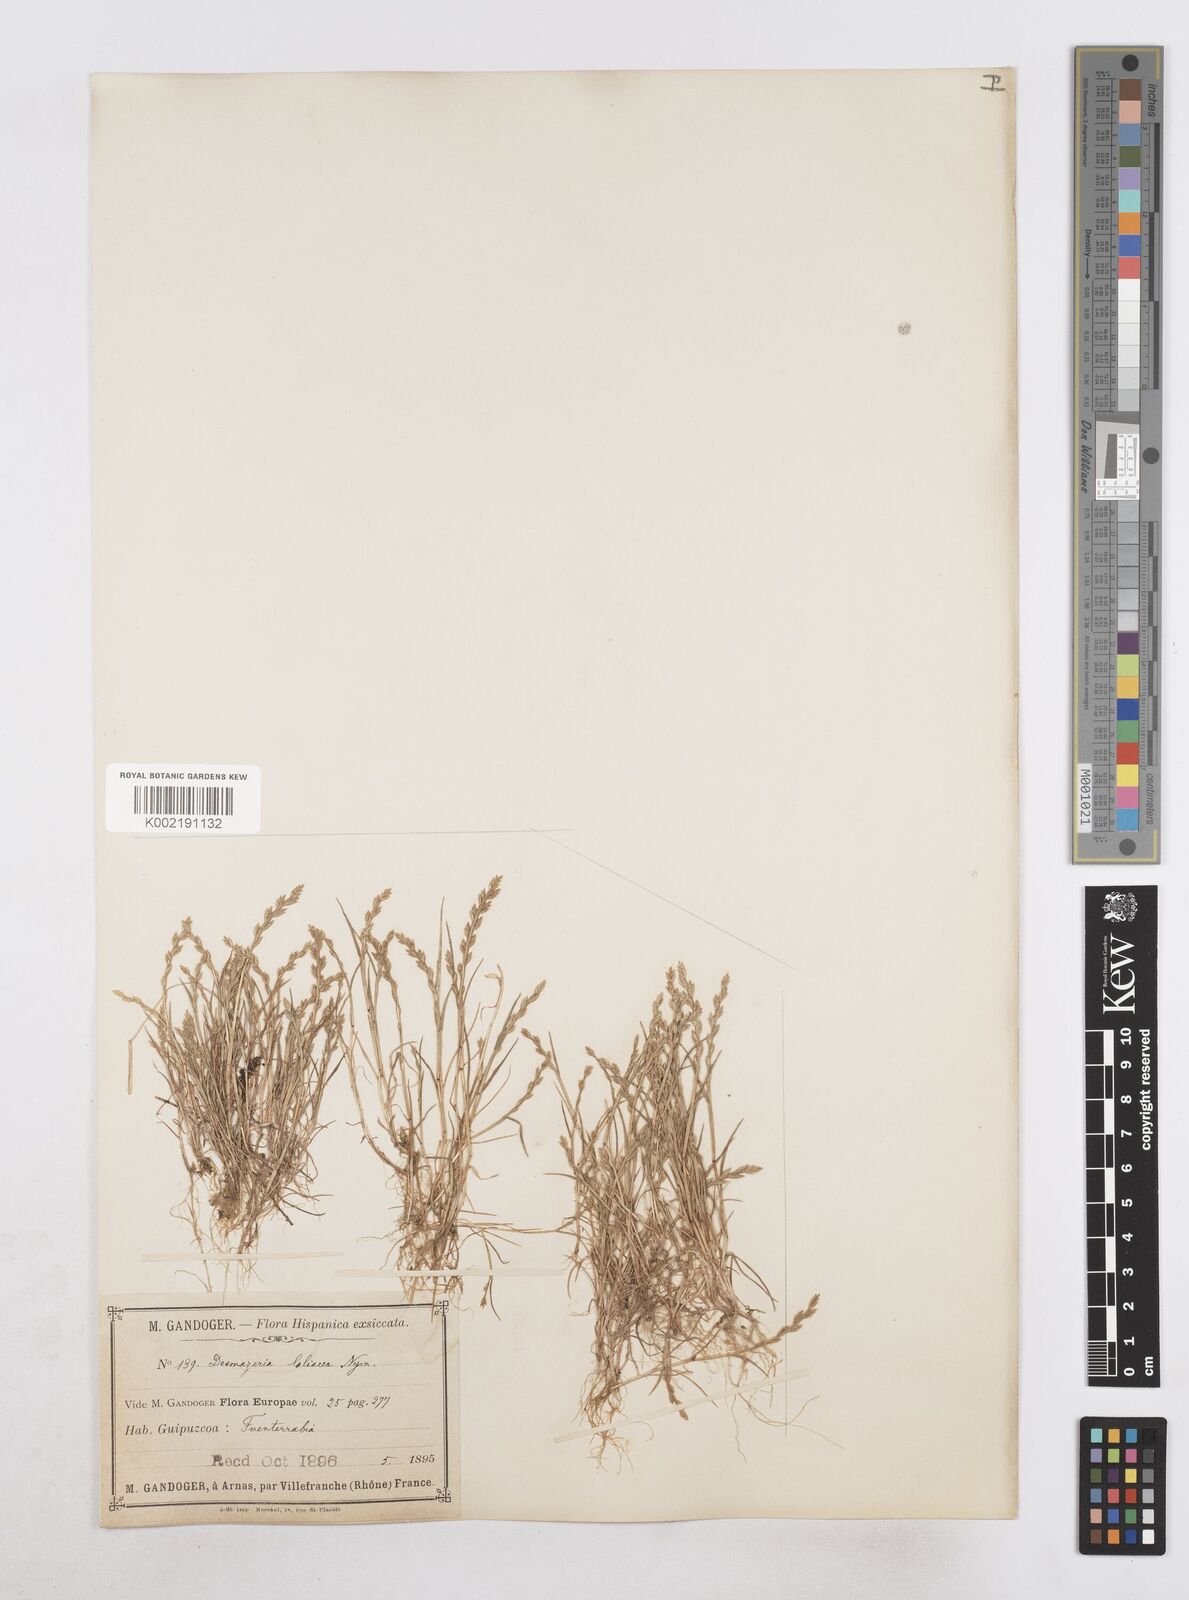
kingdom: Plantae
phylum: Tracheophyta
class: Liliopsida
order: Poales
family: Poaceae
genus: Catapodium
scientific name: Catapodium marinum
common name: Sea fern-grass
